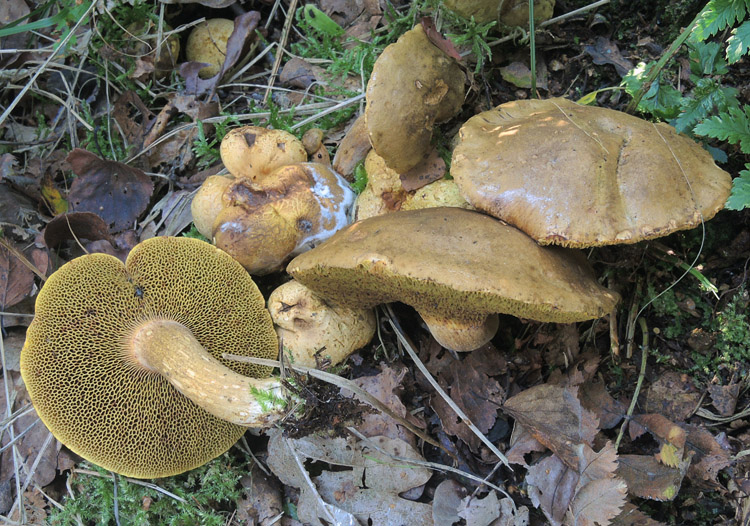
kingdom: Fungi
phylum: Basidiomycota
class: Agaricomycetes
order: Boletales
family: Boletaceae
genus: Pseudoboletus
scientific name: Pseudoboletus parasiticus
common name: snyltende rørhat
